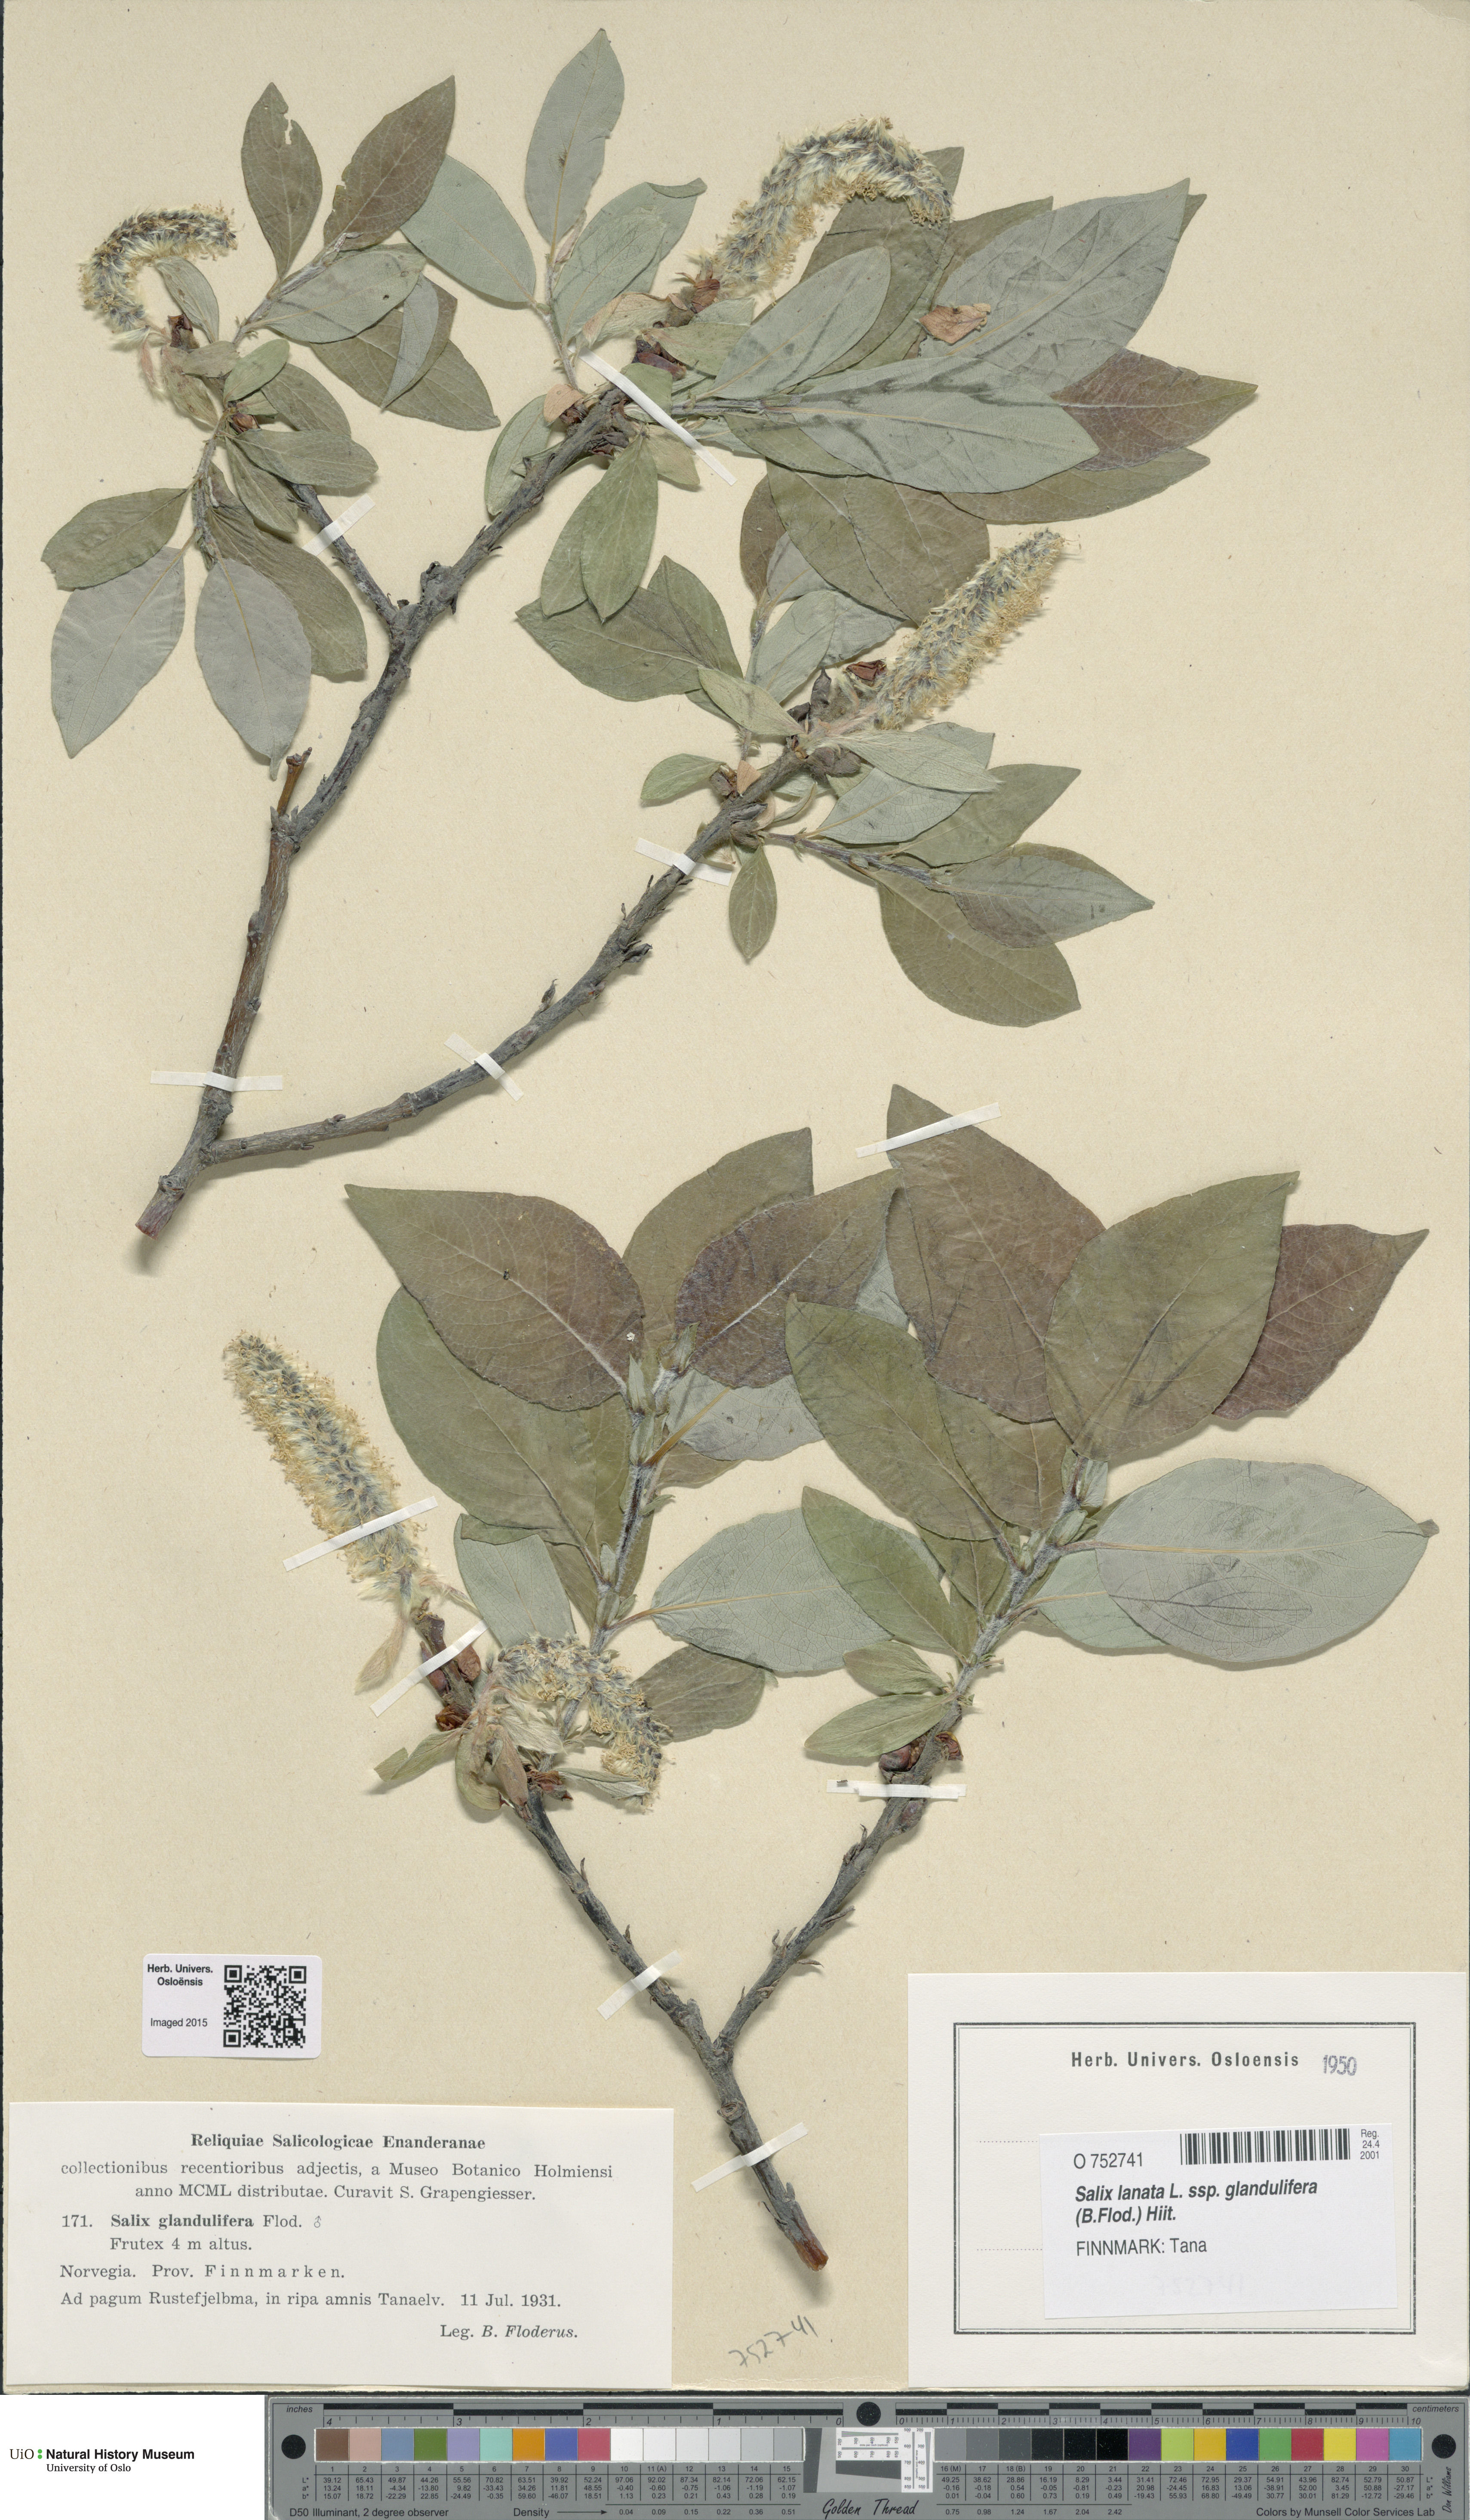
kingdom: Plantae
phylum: Tracheophyta
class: Magnoliopsida
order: Malpighiales
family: Salicaceae
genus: Salix
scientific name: Salix lanata
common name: Woolly willow
